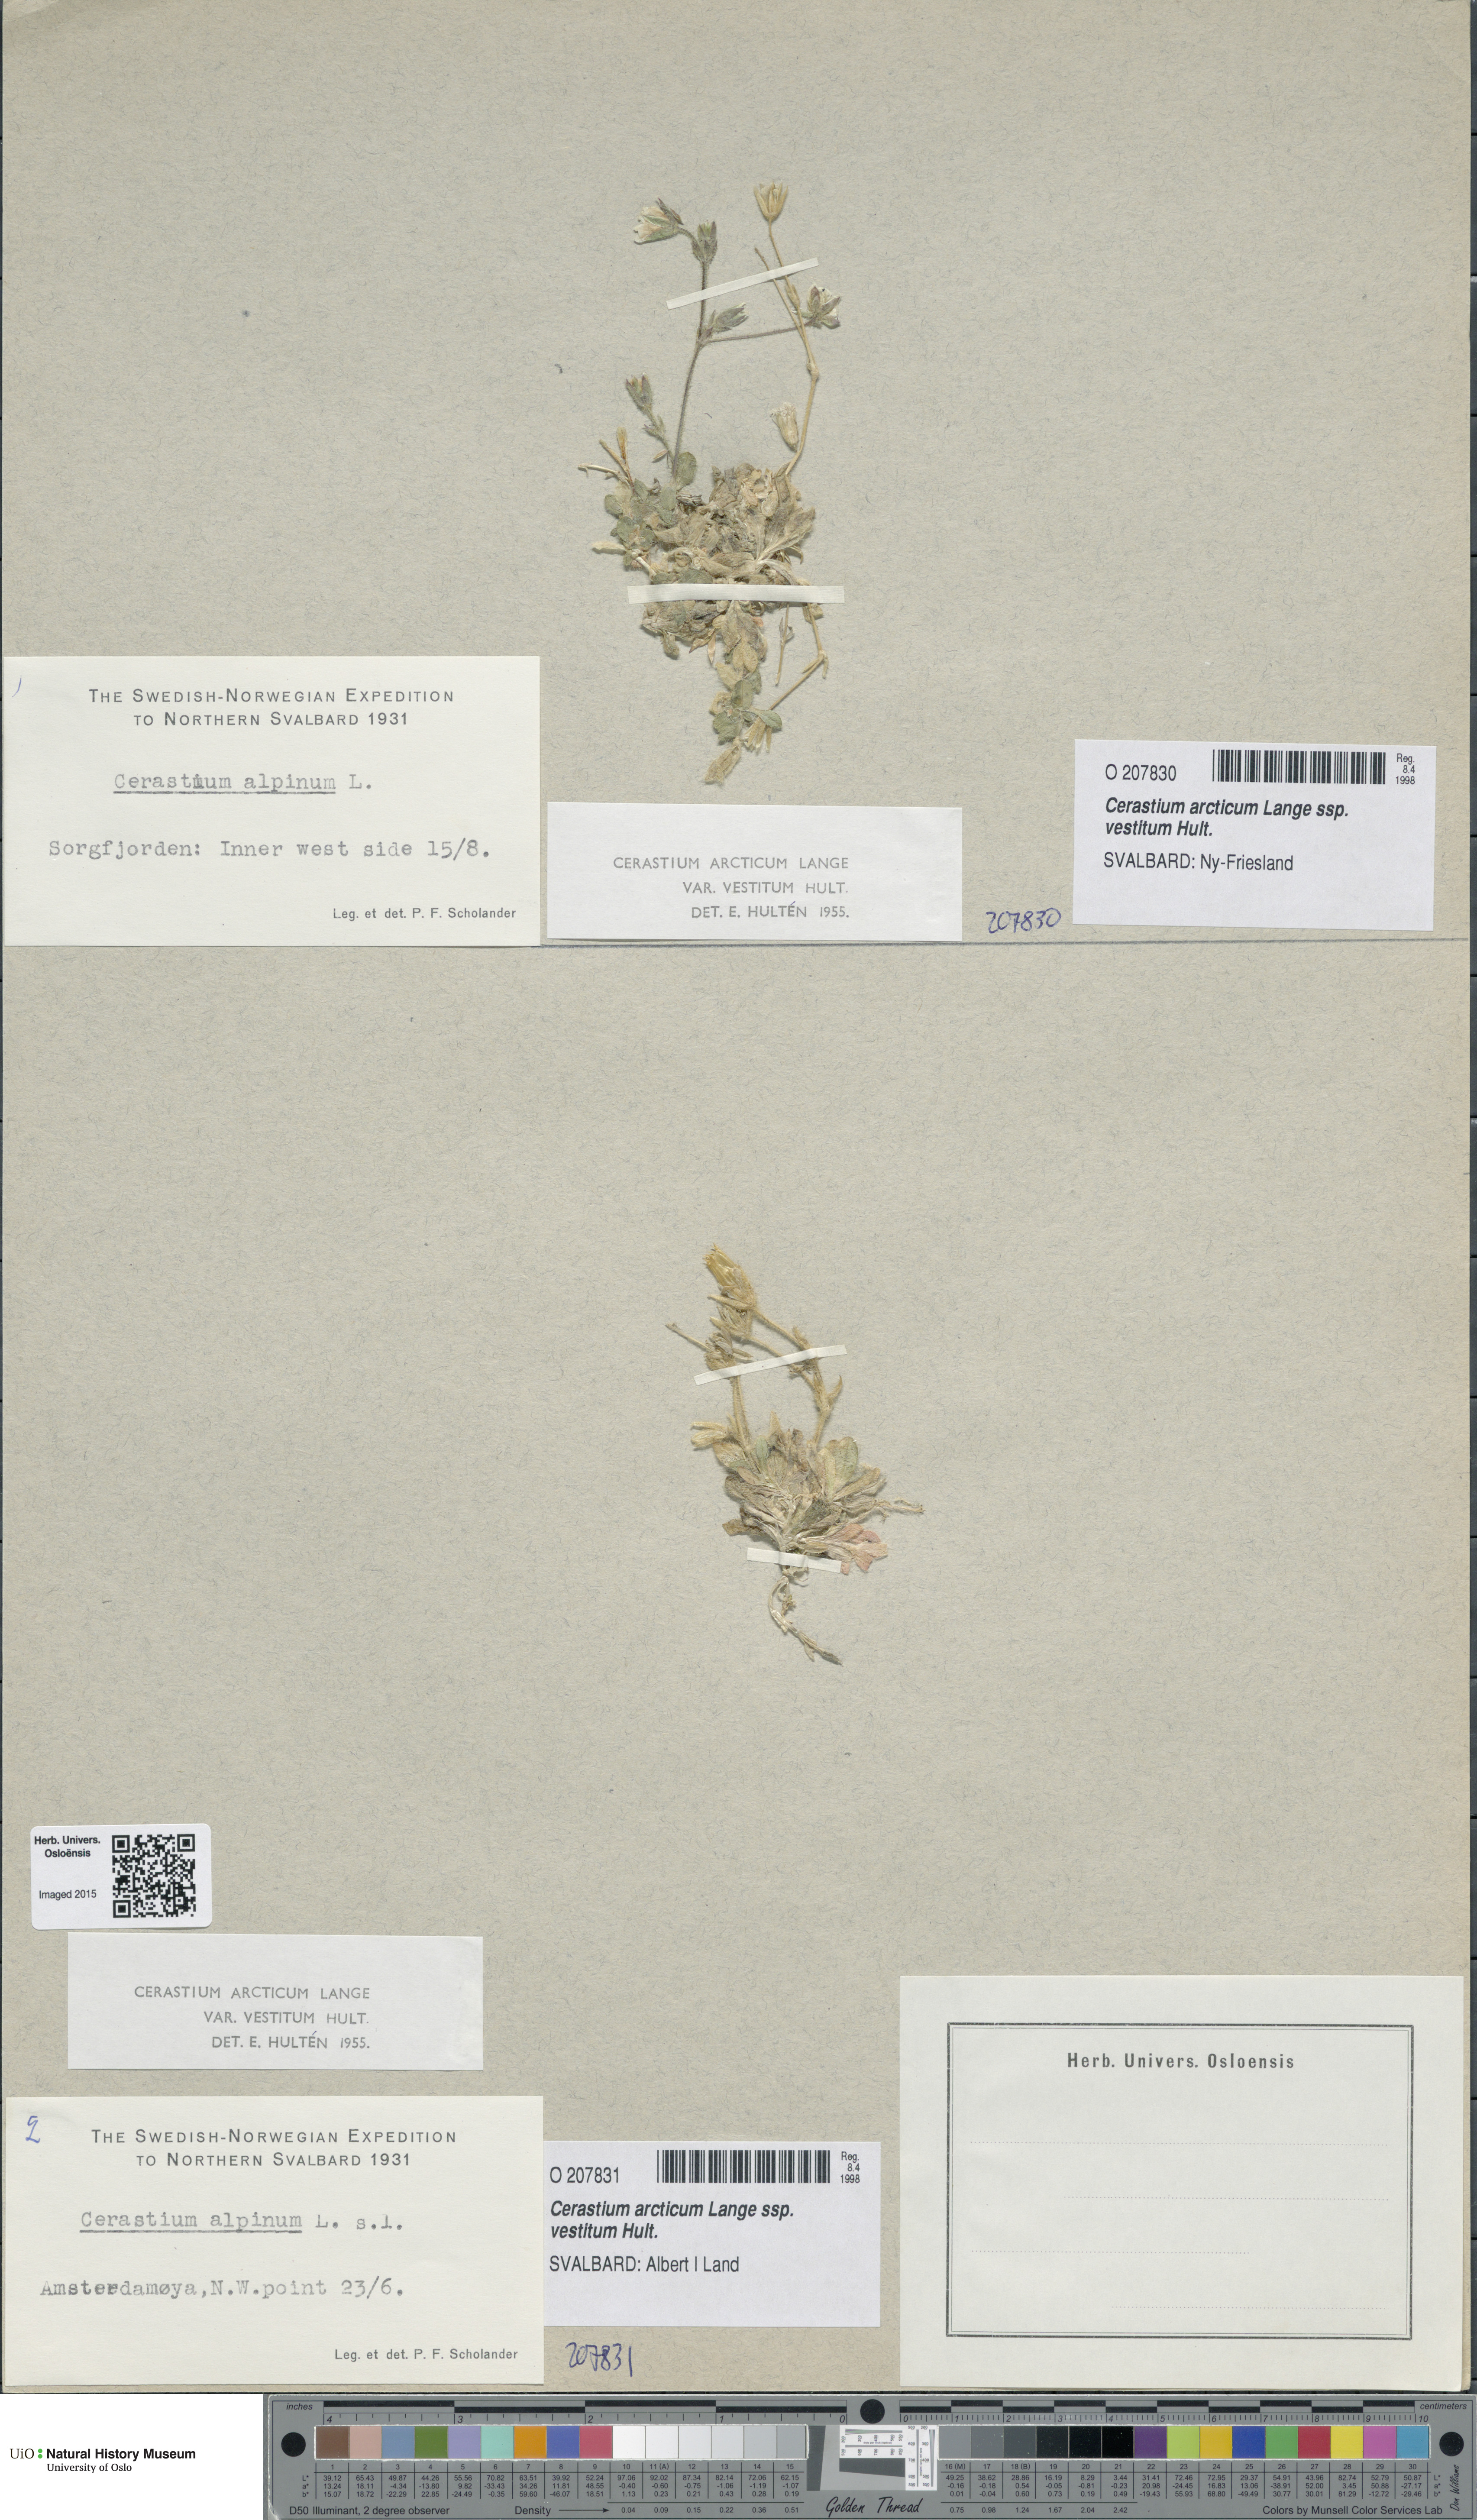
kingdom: Plantae
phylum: Tracheophyta
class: Magnoliopsida
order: Caryophyllales
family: Caryophyllaceae
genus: Cerastium
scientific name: Cerastium arcticum
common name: Arctic mouse-ear
